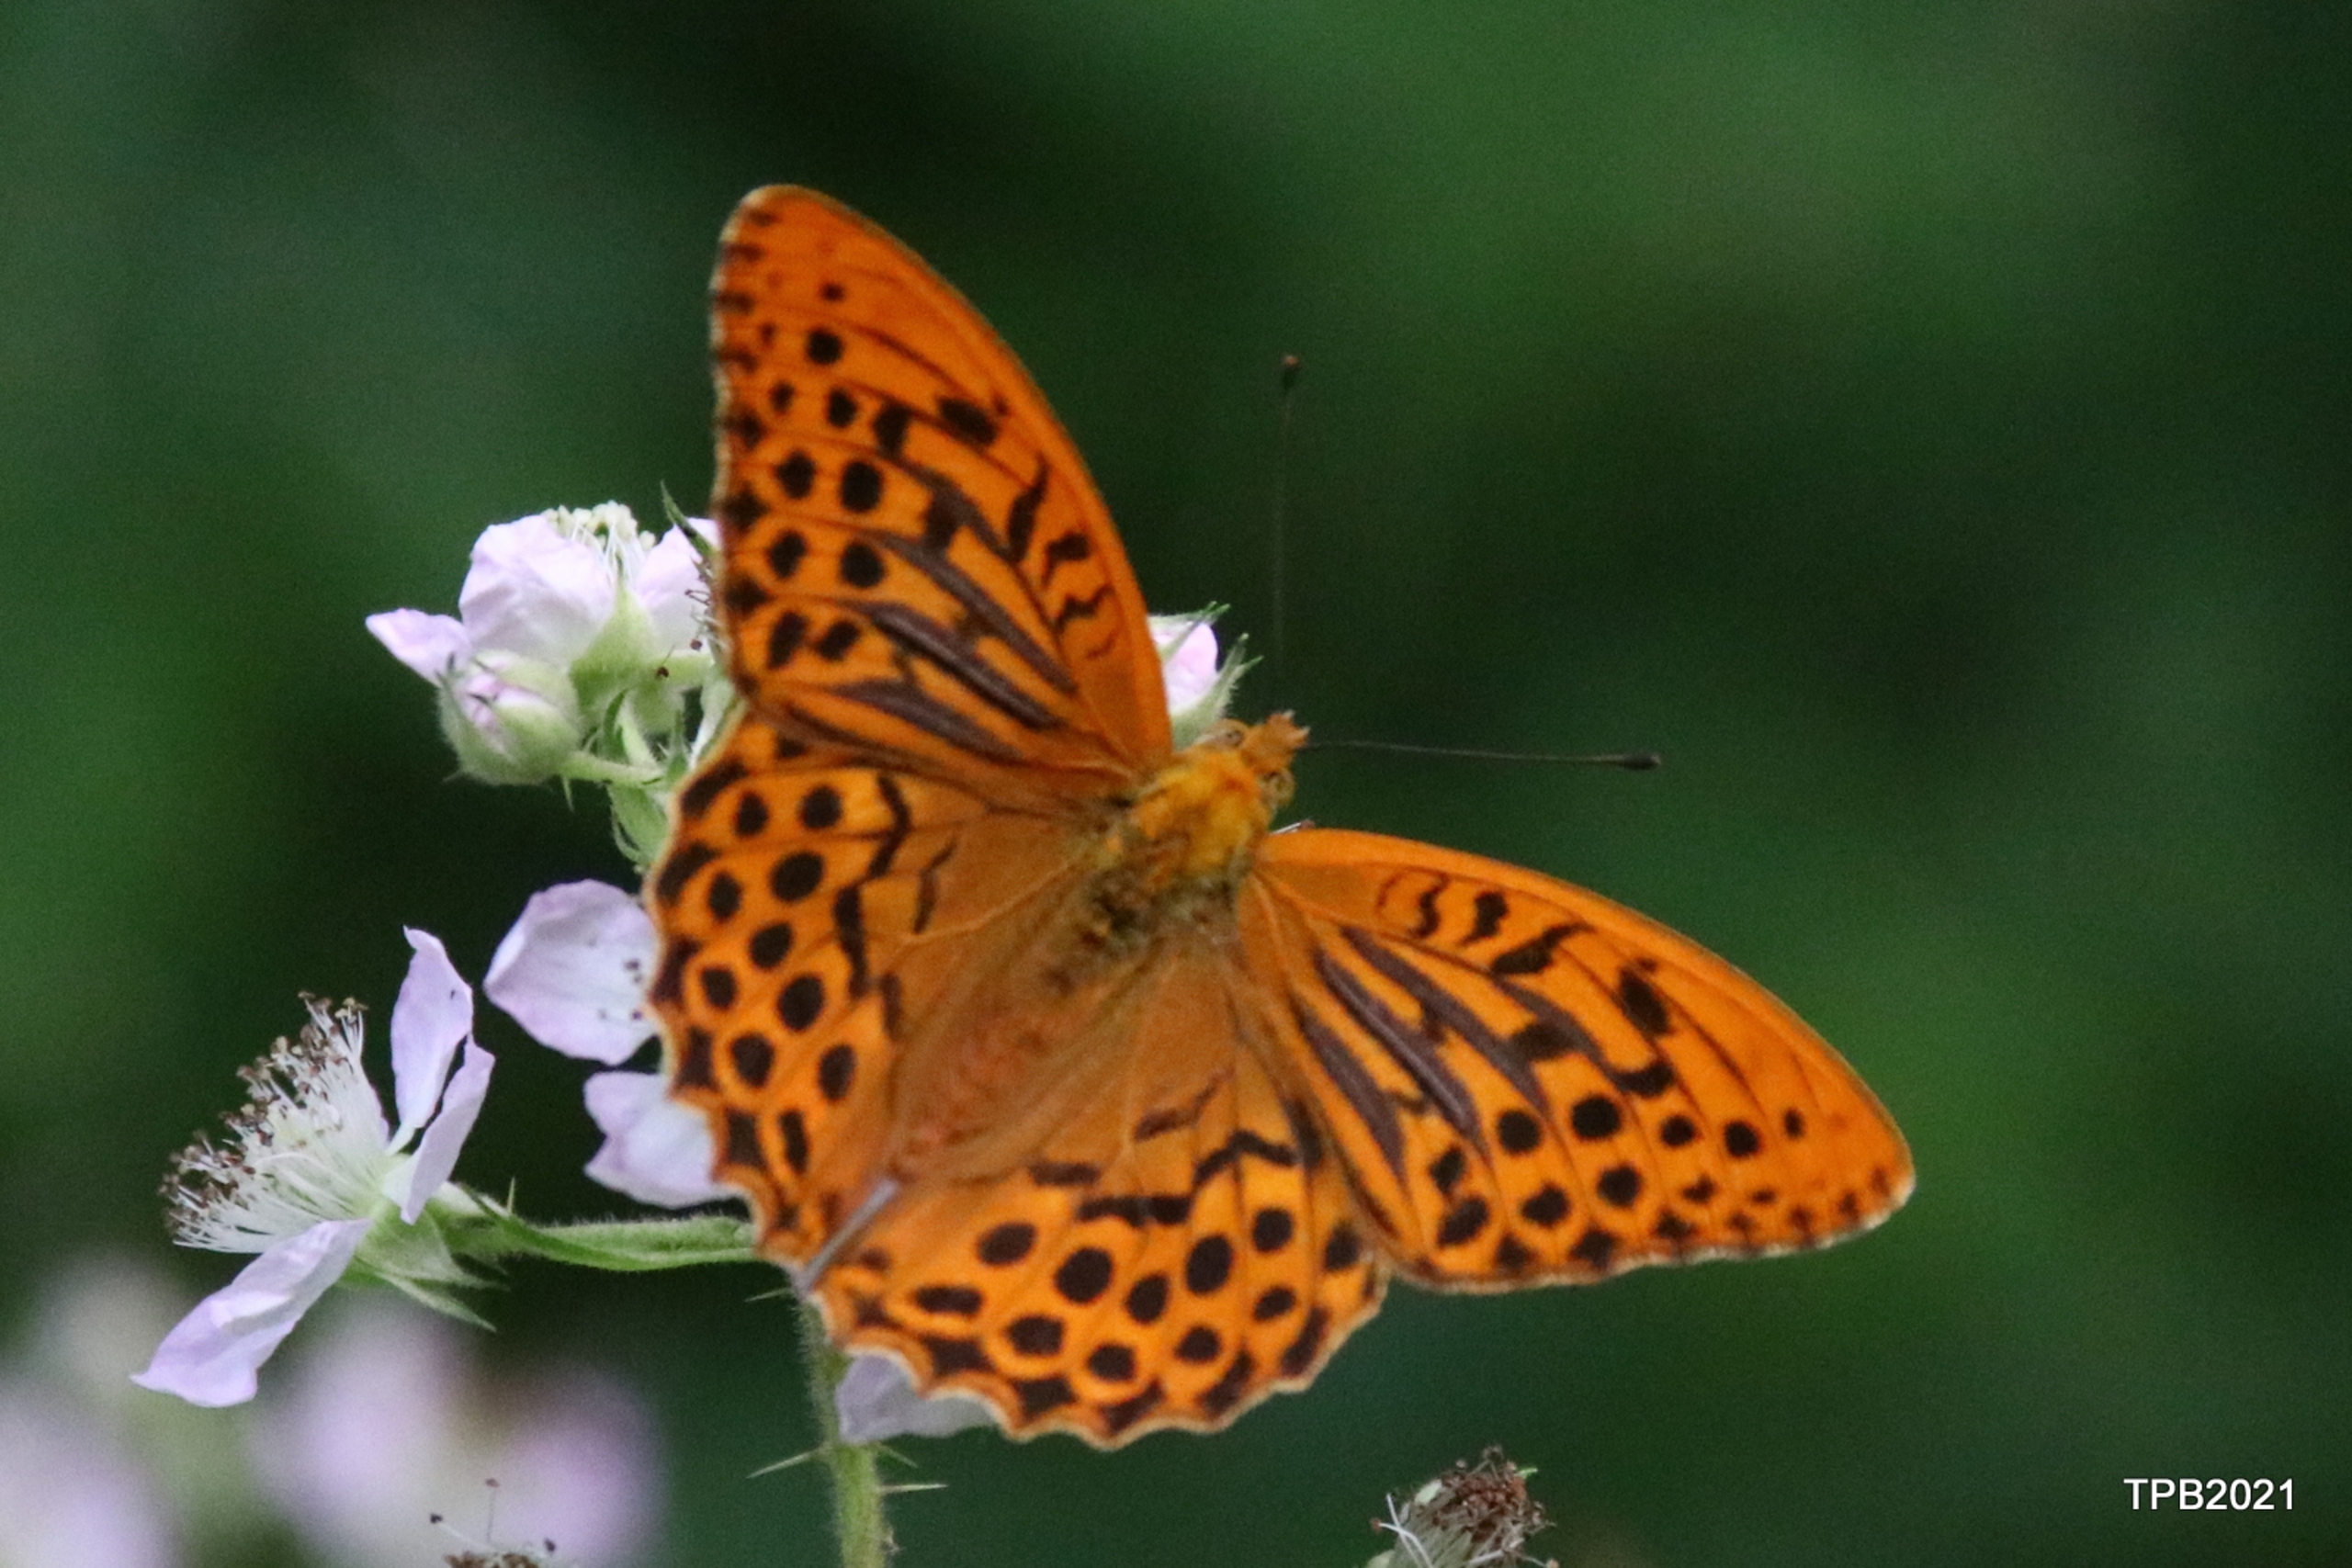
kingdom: Animalia
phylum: Arthropoda
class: Insecta
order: Lepidoptera
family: Nymphalidae
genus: Argynnis
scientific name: Argynnis paphia
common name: Kejserkåbe
